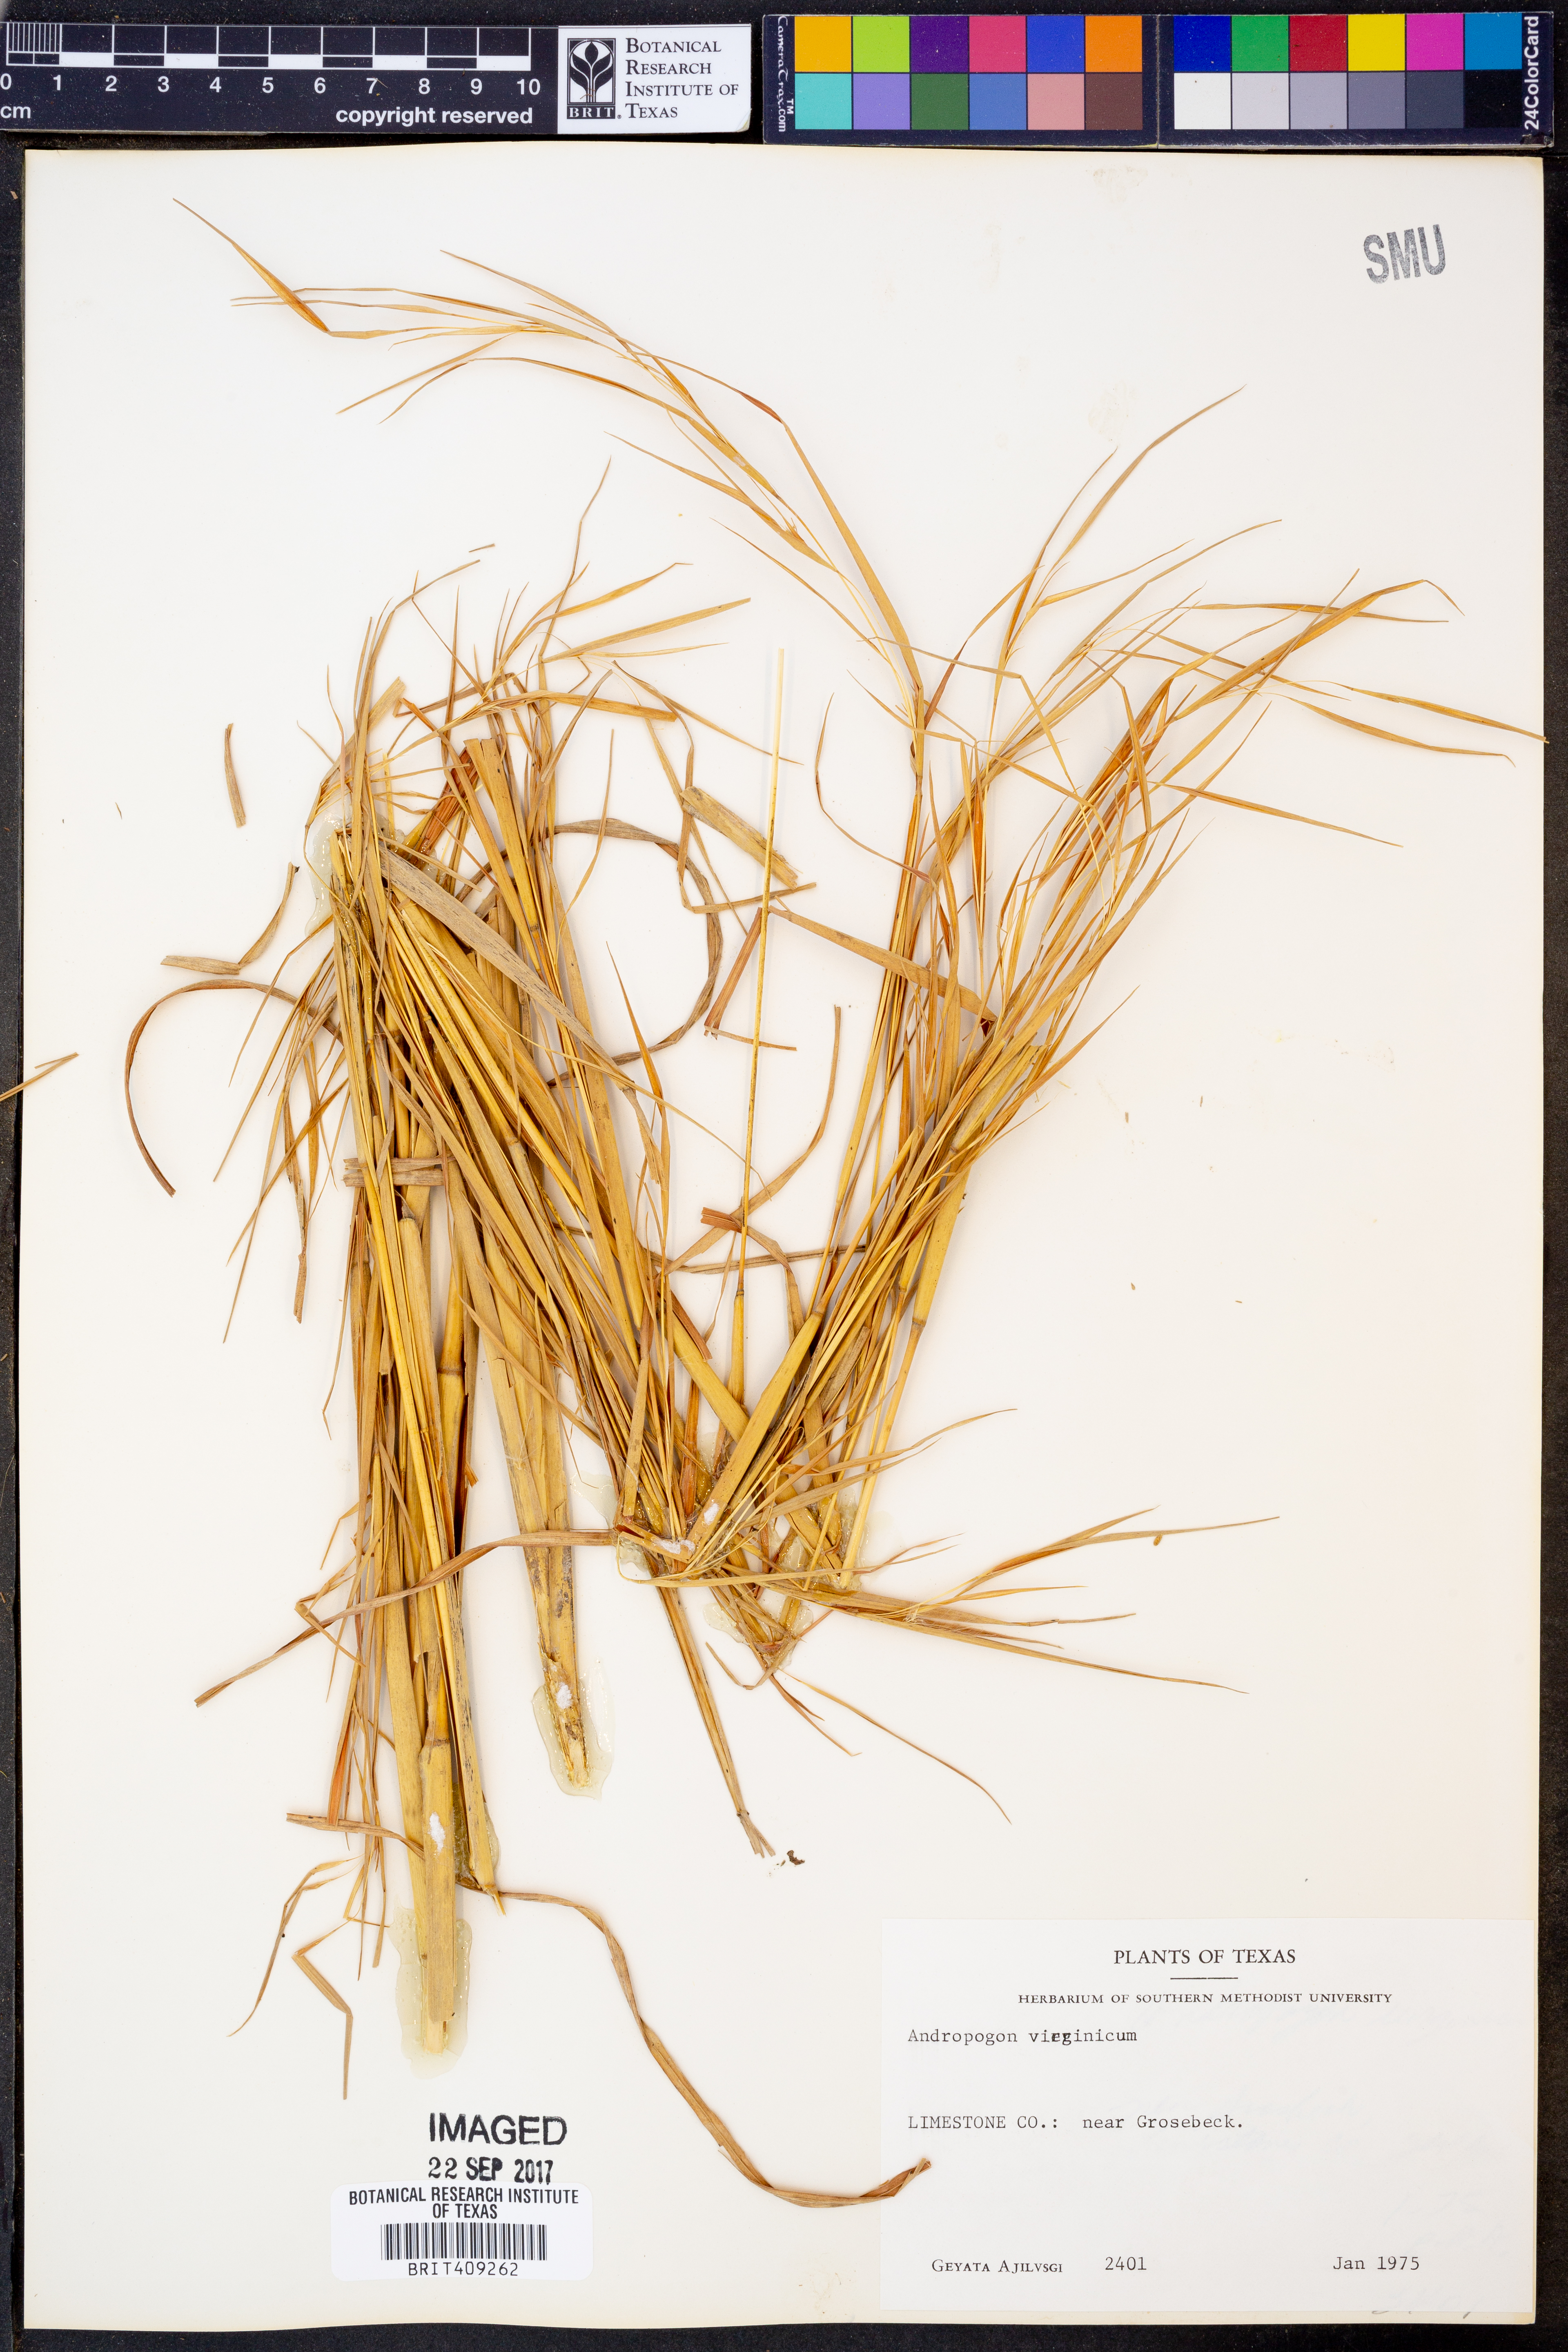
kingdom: Plantae
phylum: Tracheophyta
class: Liliopsida
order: Poales
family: Poaceae
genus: Andropogon
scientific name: Andropogon virginicus
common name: Broomsedge bluestem
